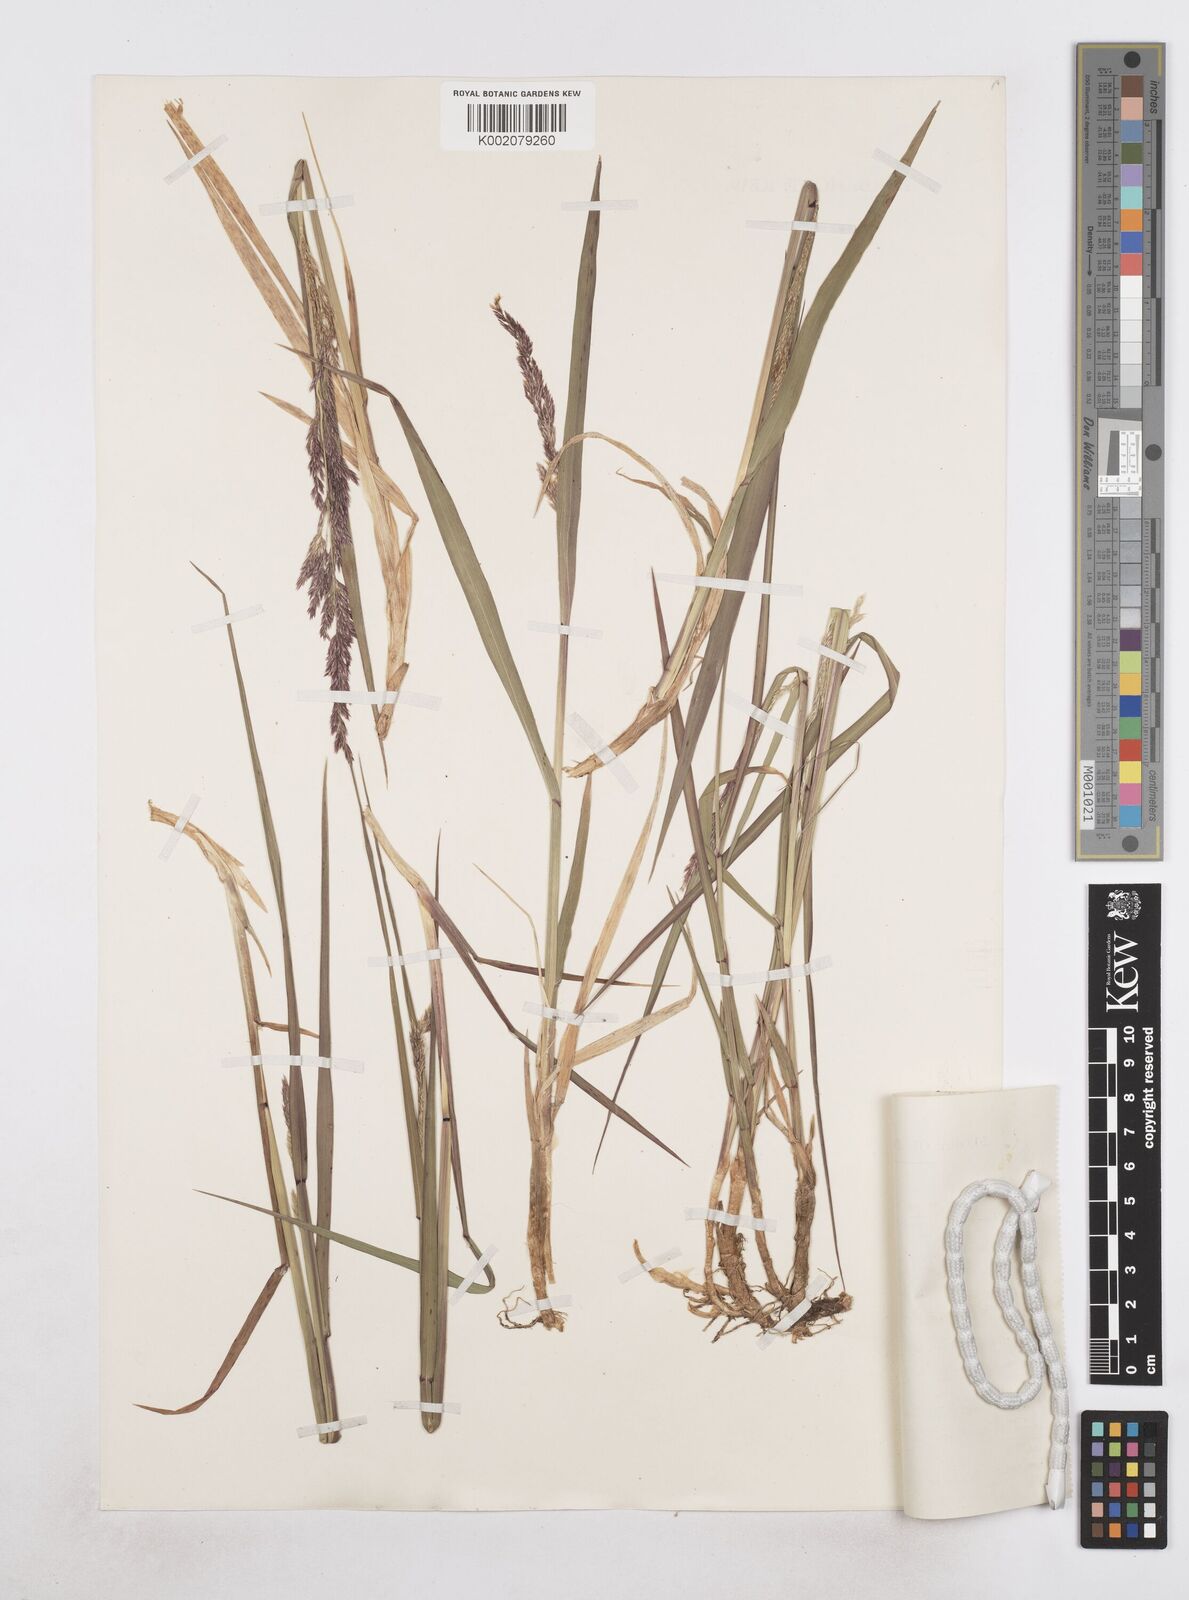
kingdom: Plantae
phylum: Tracheophyta
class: Liliopsida
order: Poales
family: Poaceae
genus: Arctagrostis
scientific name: Arctagrostis latifolia
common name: Arctic grass
